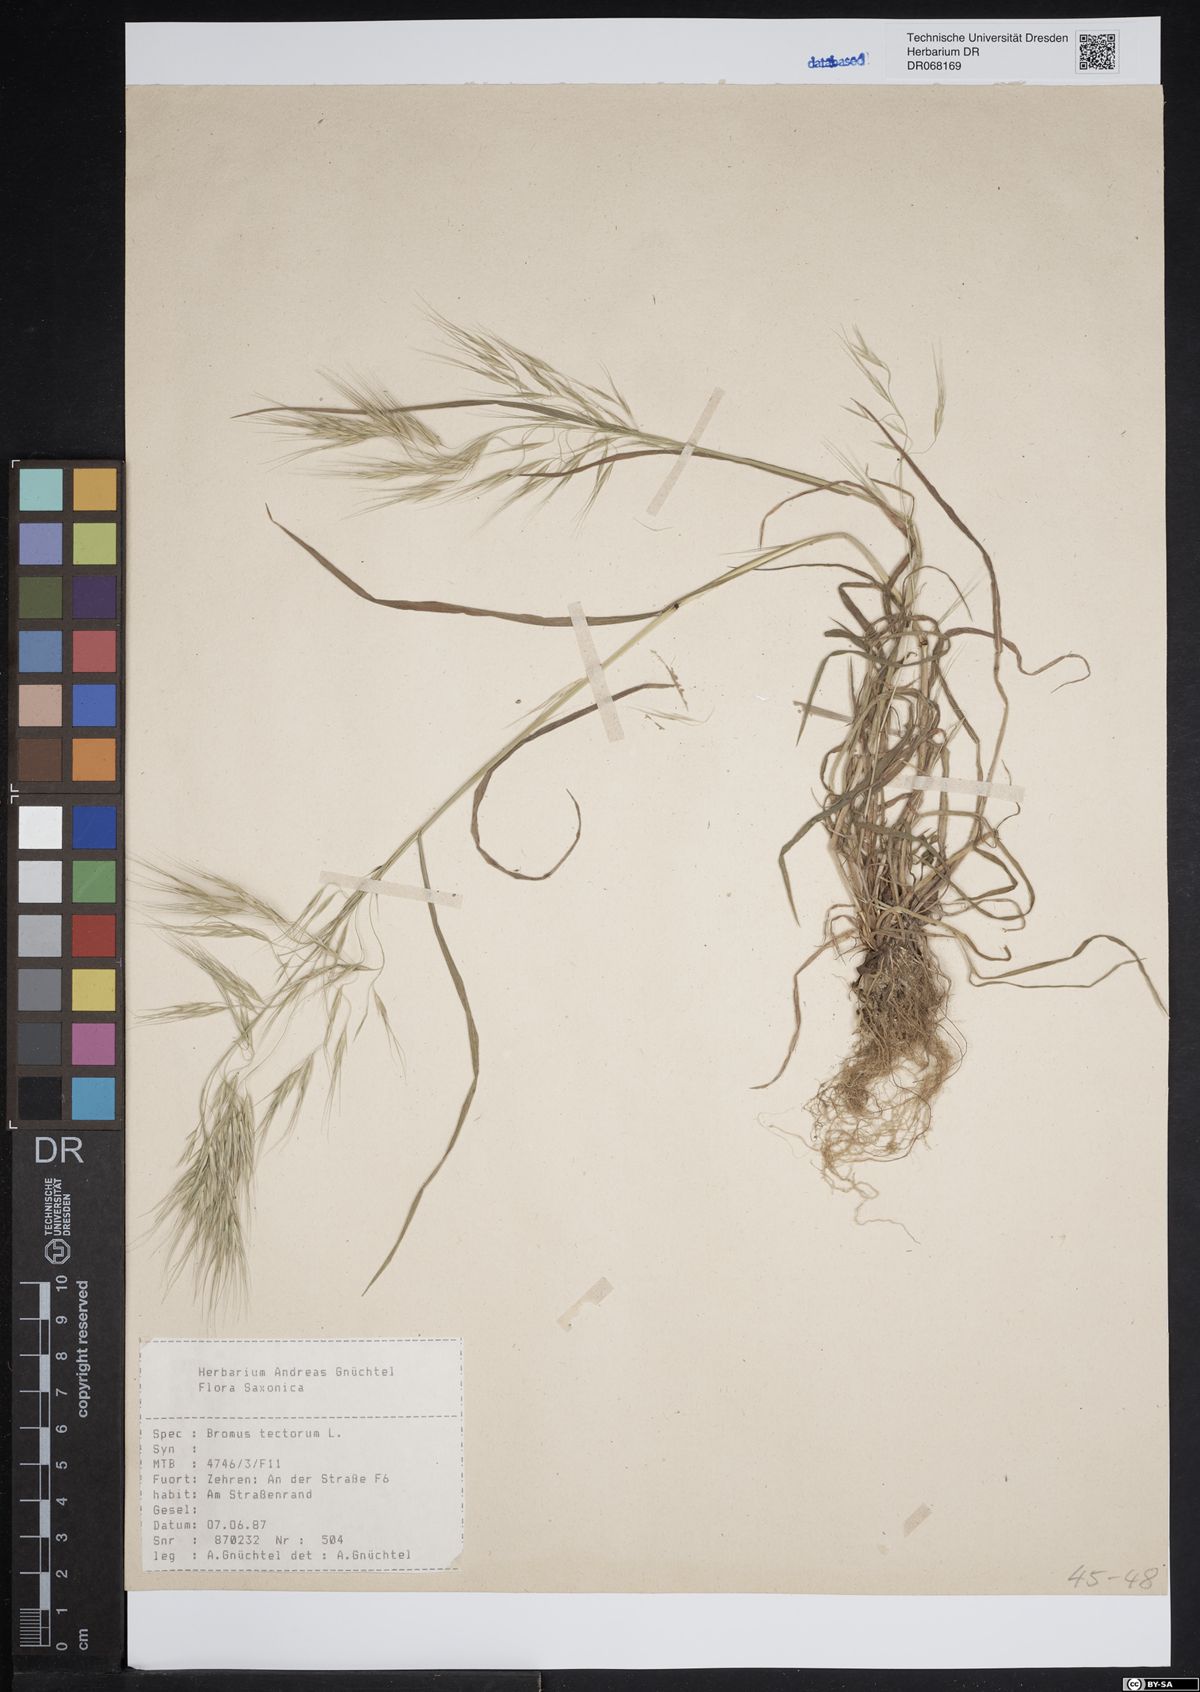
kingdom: Plantae
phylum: Tracheophyta
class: Liliopsida
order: Poales
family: Poaceae
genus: Bromus
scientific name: Bromus tectorum
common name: Cheatgrass
